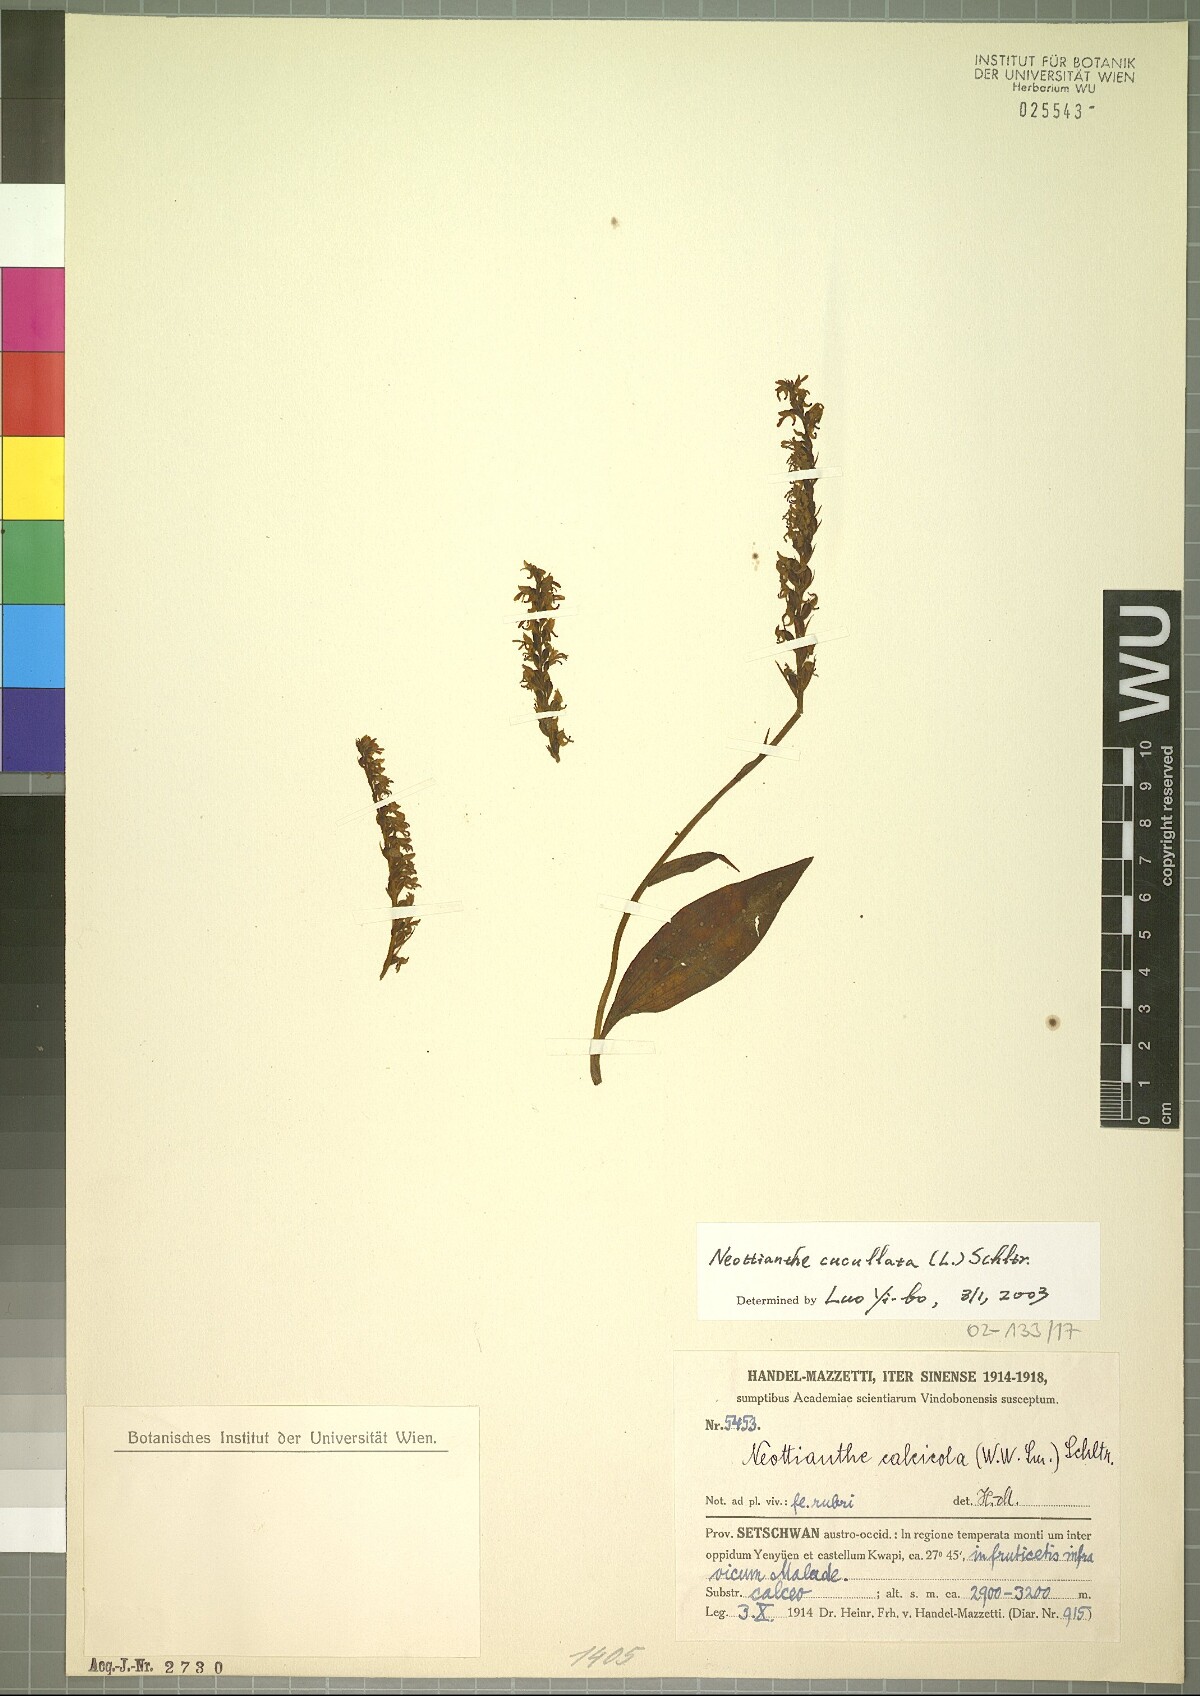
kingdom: Plantae
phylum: Tracheophyta
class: Liliopsida
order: Asparagales
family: Orchidaceae
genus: Hemipilia
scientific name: Hemipilia cucullata
